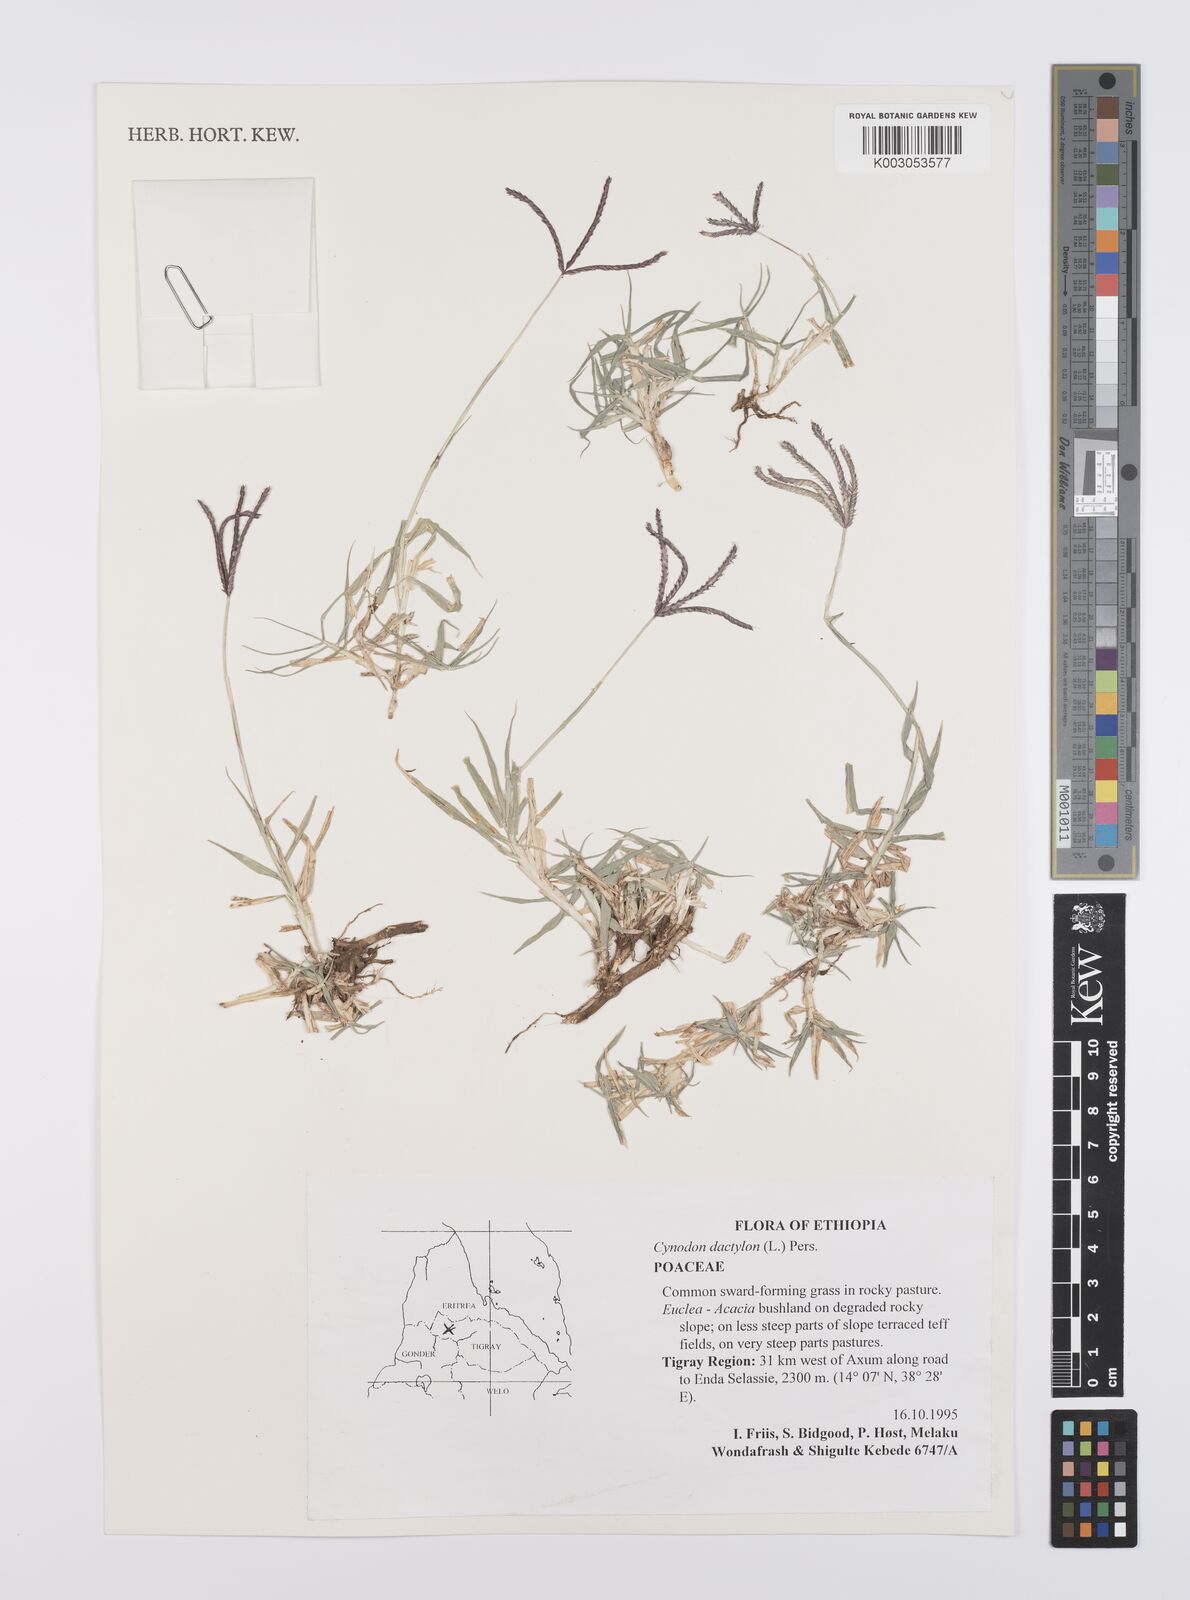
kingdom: Plantae
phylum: Tracheophyta
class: Liliopsida
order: Poales
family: Poaceae
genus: Cynodon
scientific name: Cynodon dactylon
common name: Bermuda grass
